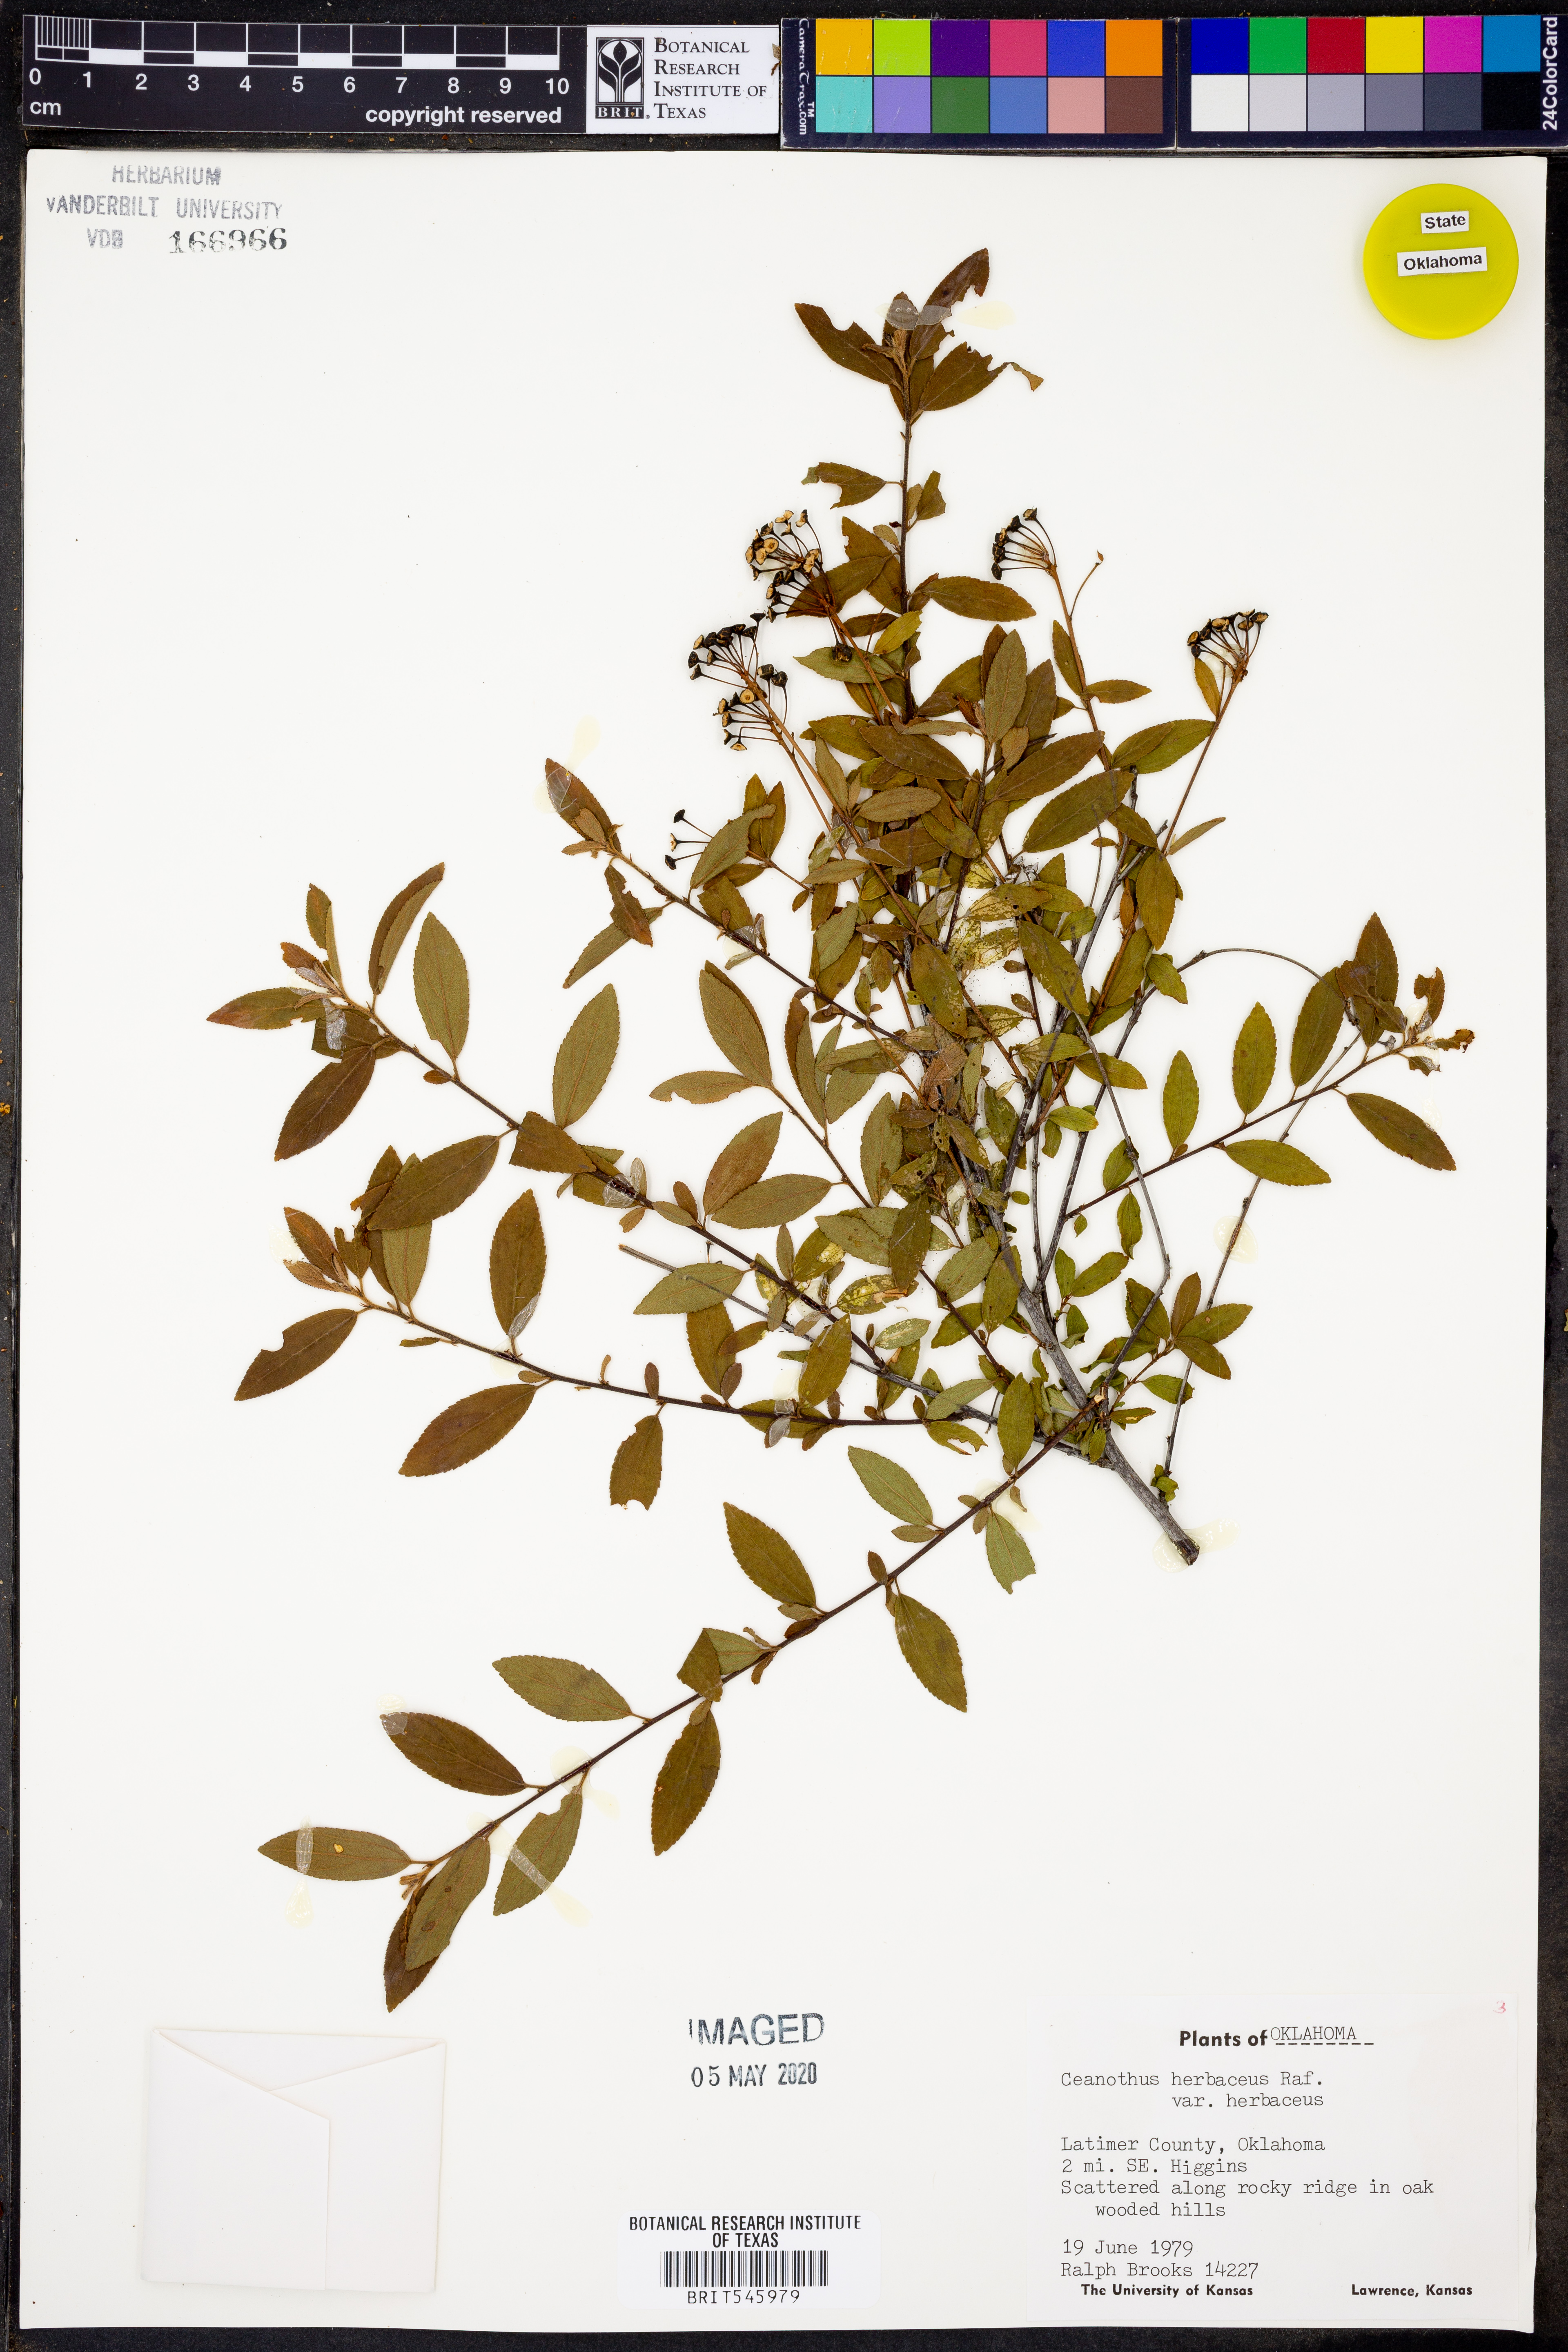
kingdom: Plantae
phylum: Tracheophyta
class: Magnoliopsida
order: Rosales
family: Rhamnaceae
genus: Ceanothus
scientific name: Ceanothus herbaceus
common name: Inland ceanothus
